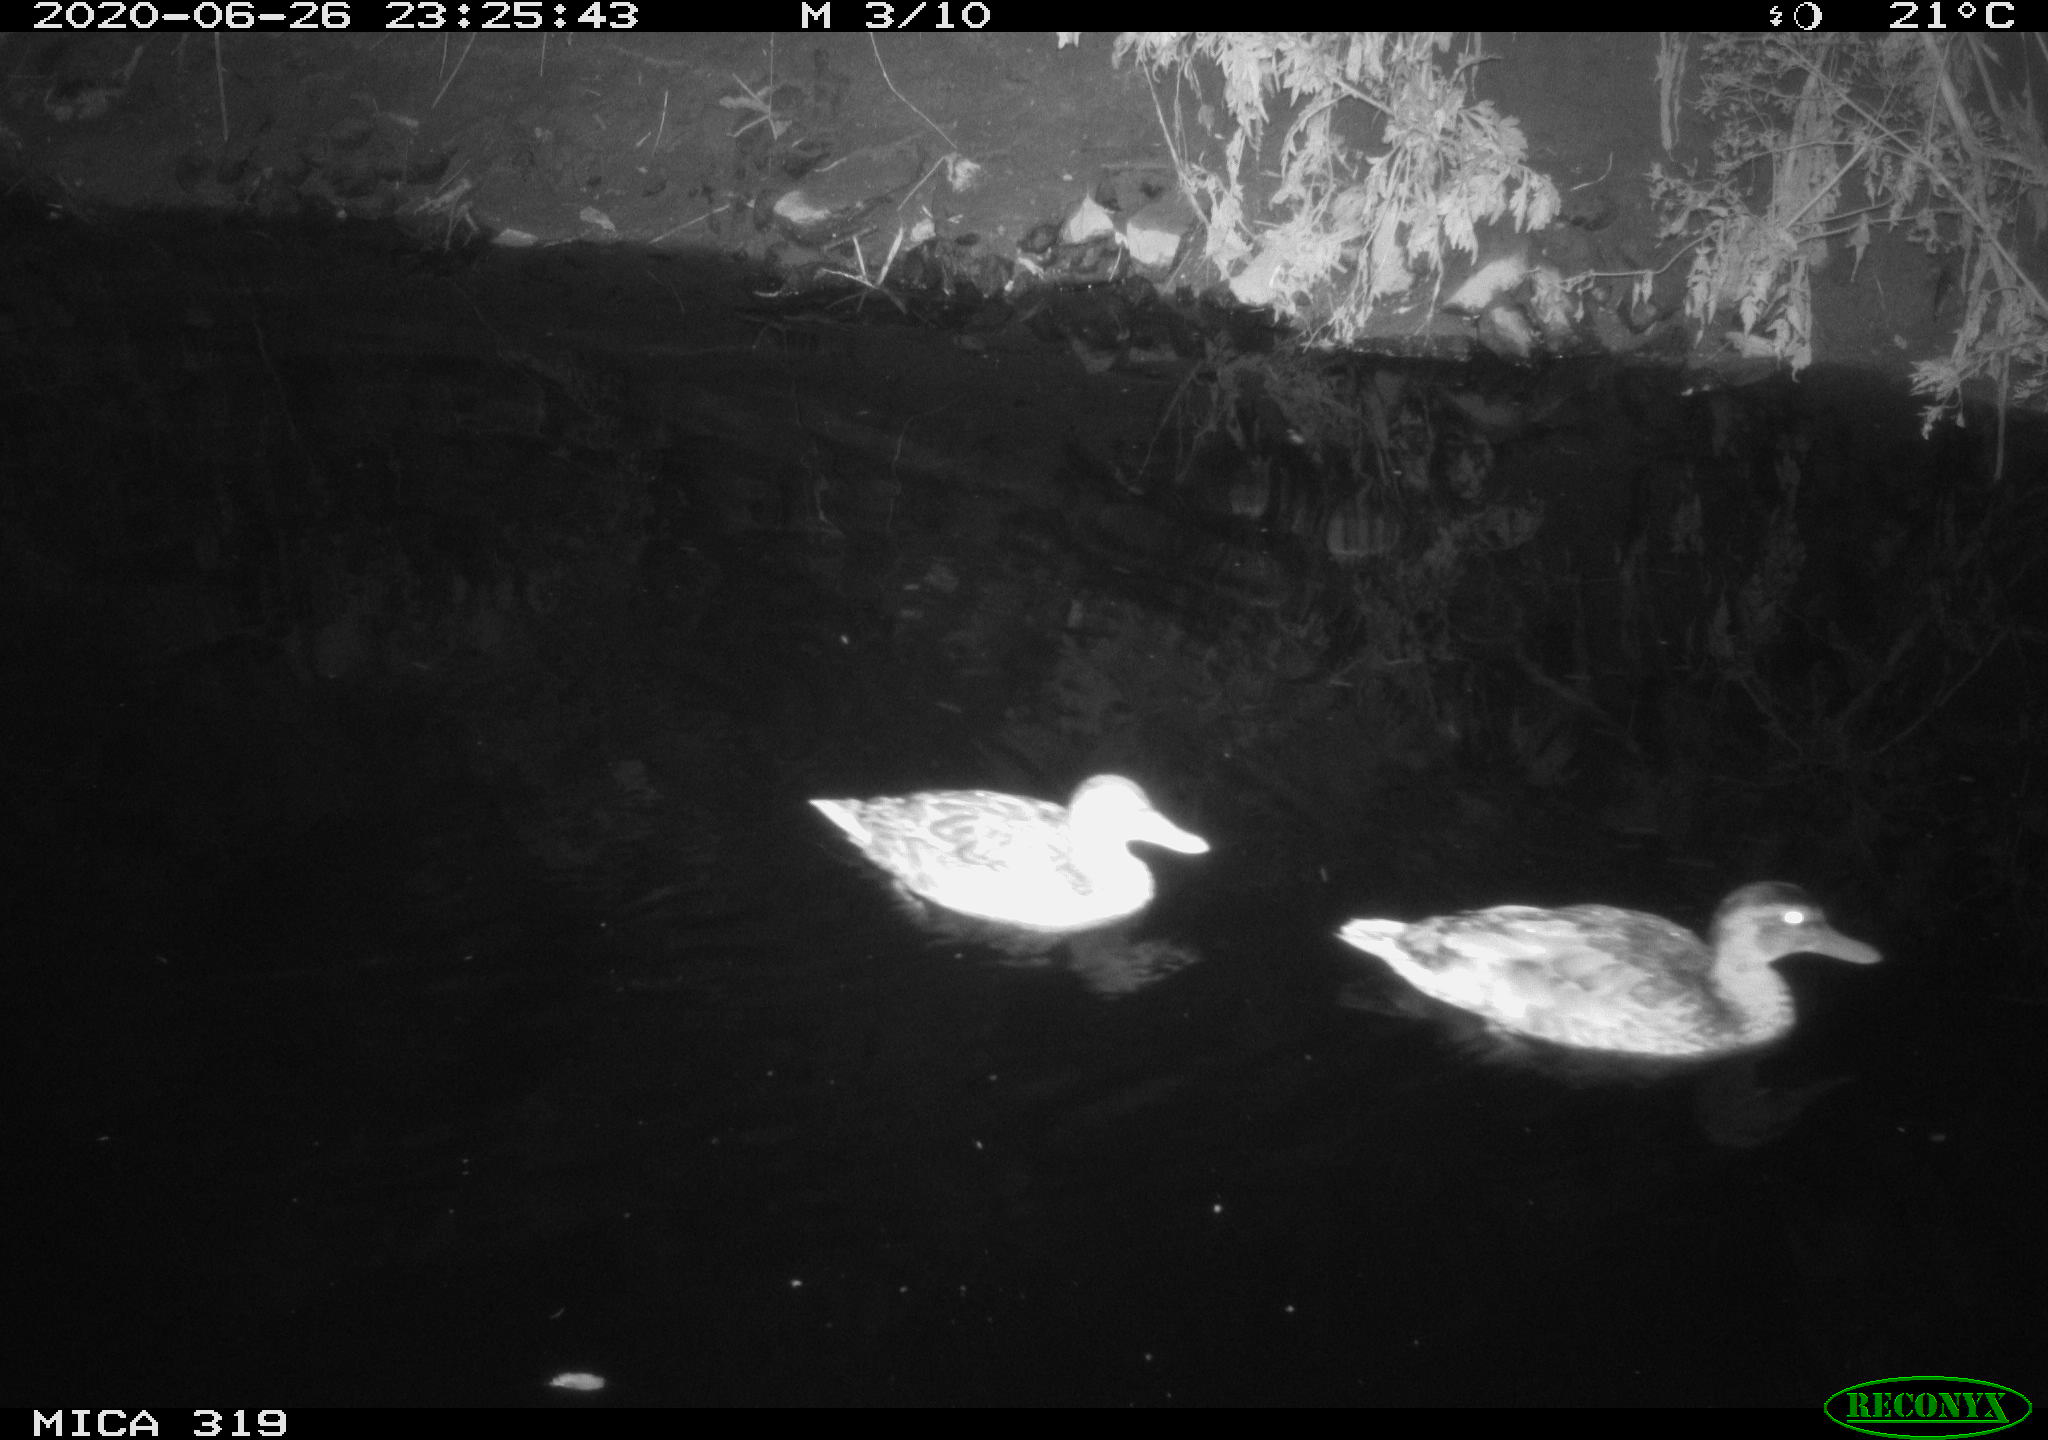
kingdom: Animalia
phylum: Chordata
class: Aves
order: Anseriformes
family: Anatidae
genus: Anas
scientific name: Anas platyrhynchos
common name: Mallard
